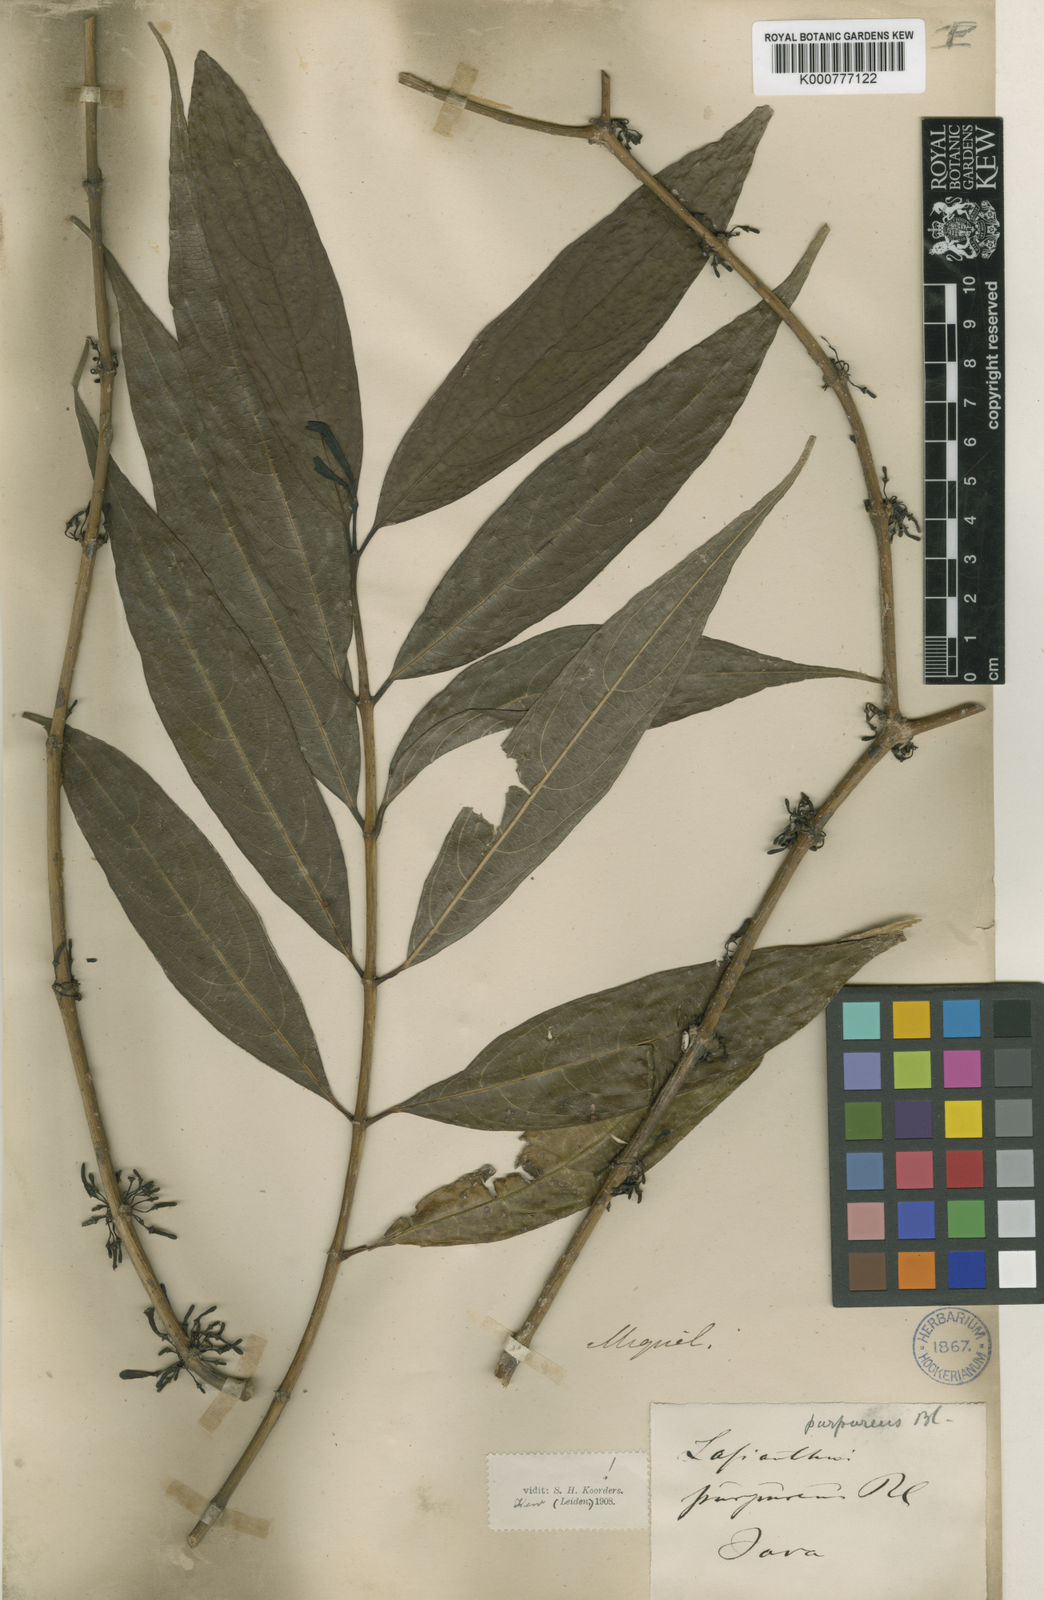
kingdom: Plantae
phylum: Tracheophyta
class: Magnoliopsida
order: Gentianales
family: Rubiaceae
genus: Lasianthus
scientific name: Lasianthus purpureus
